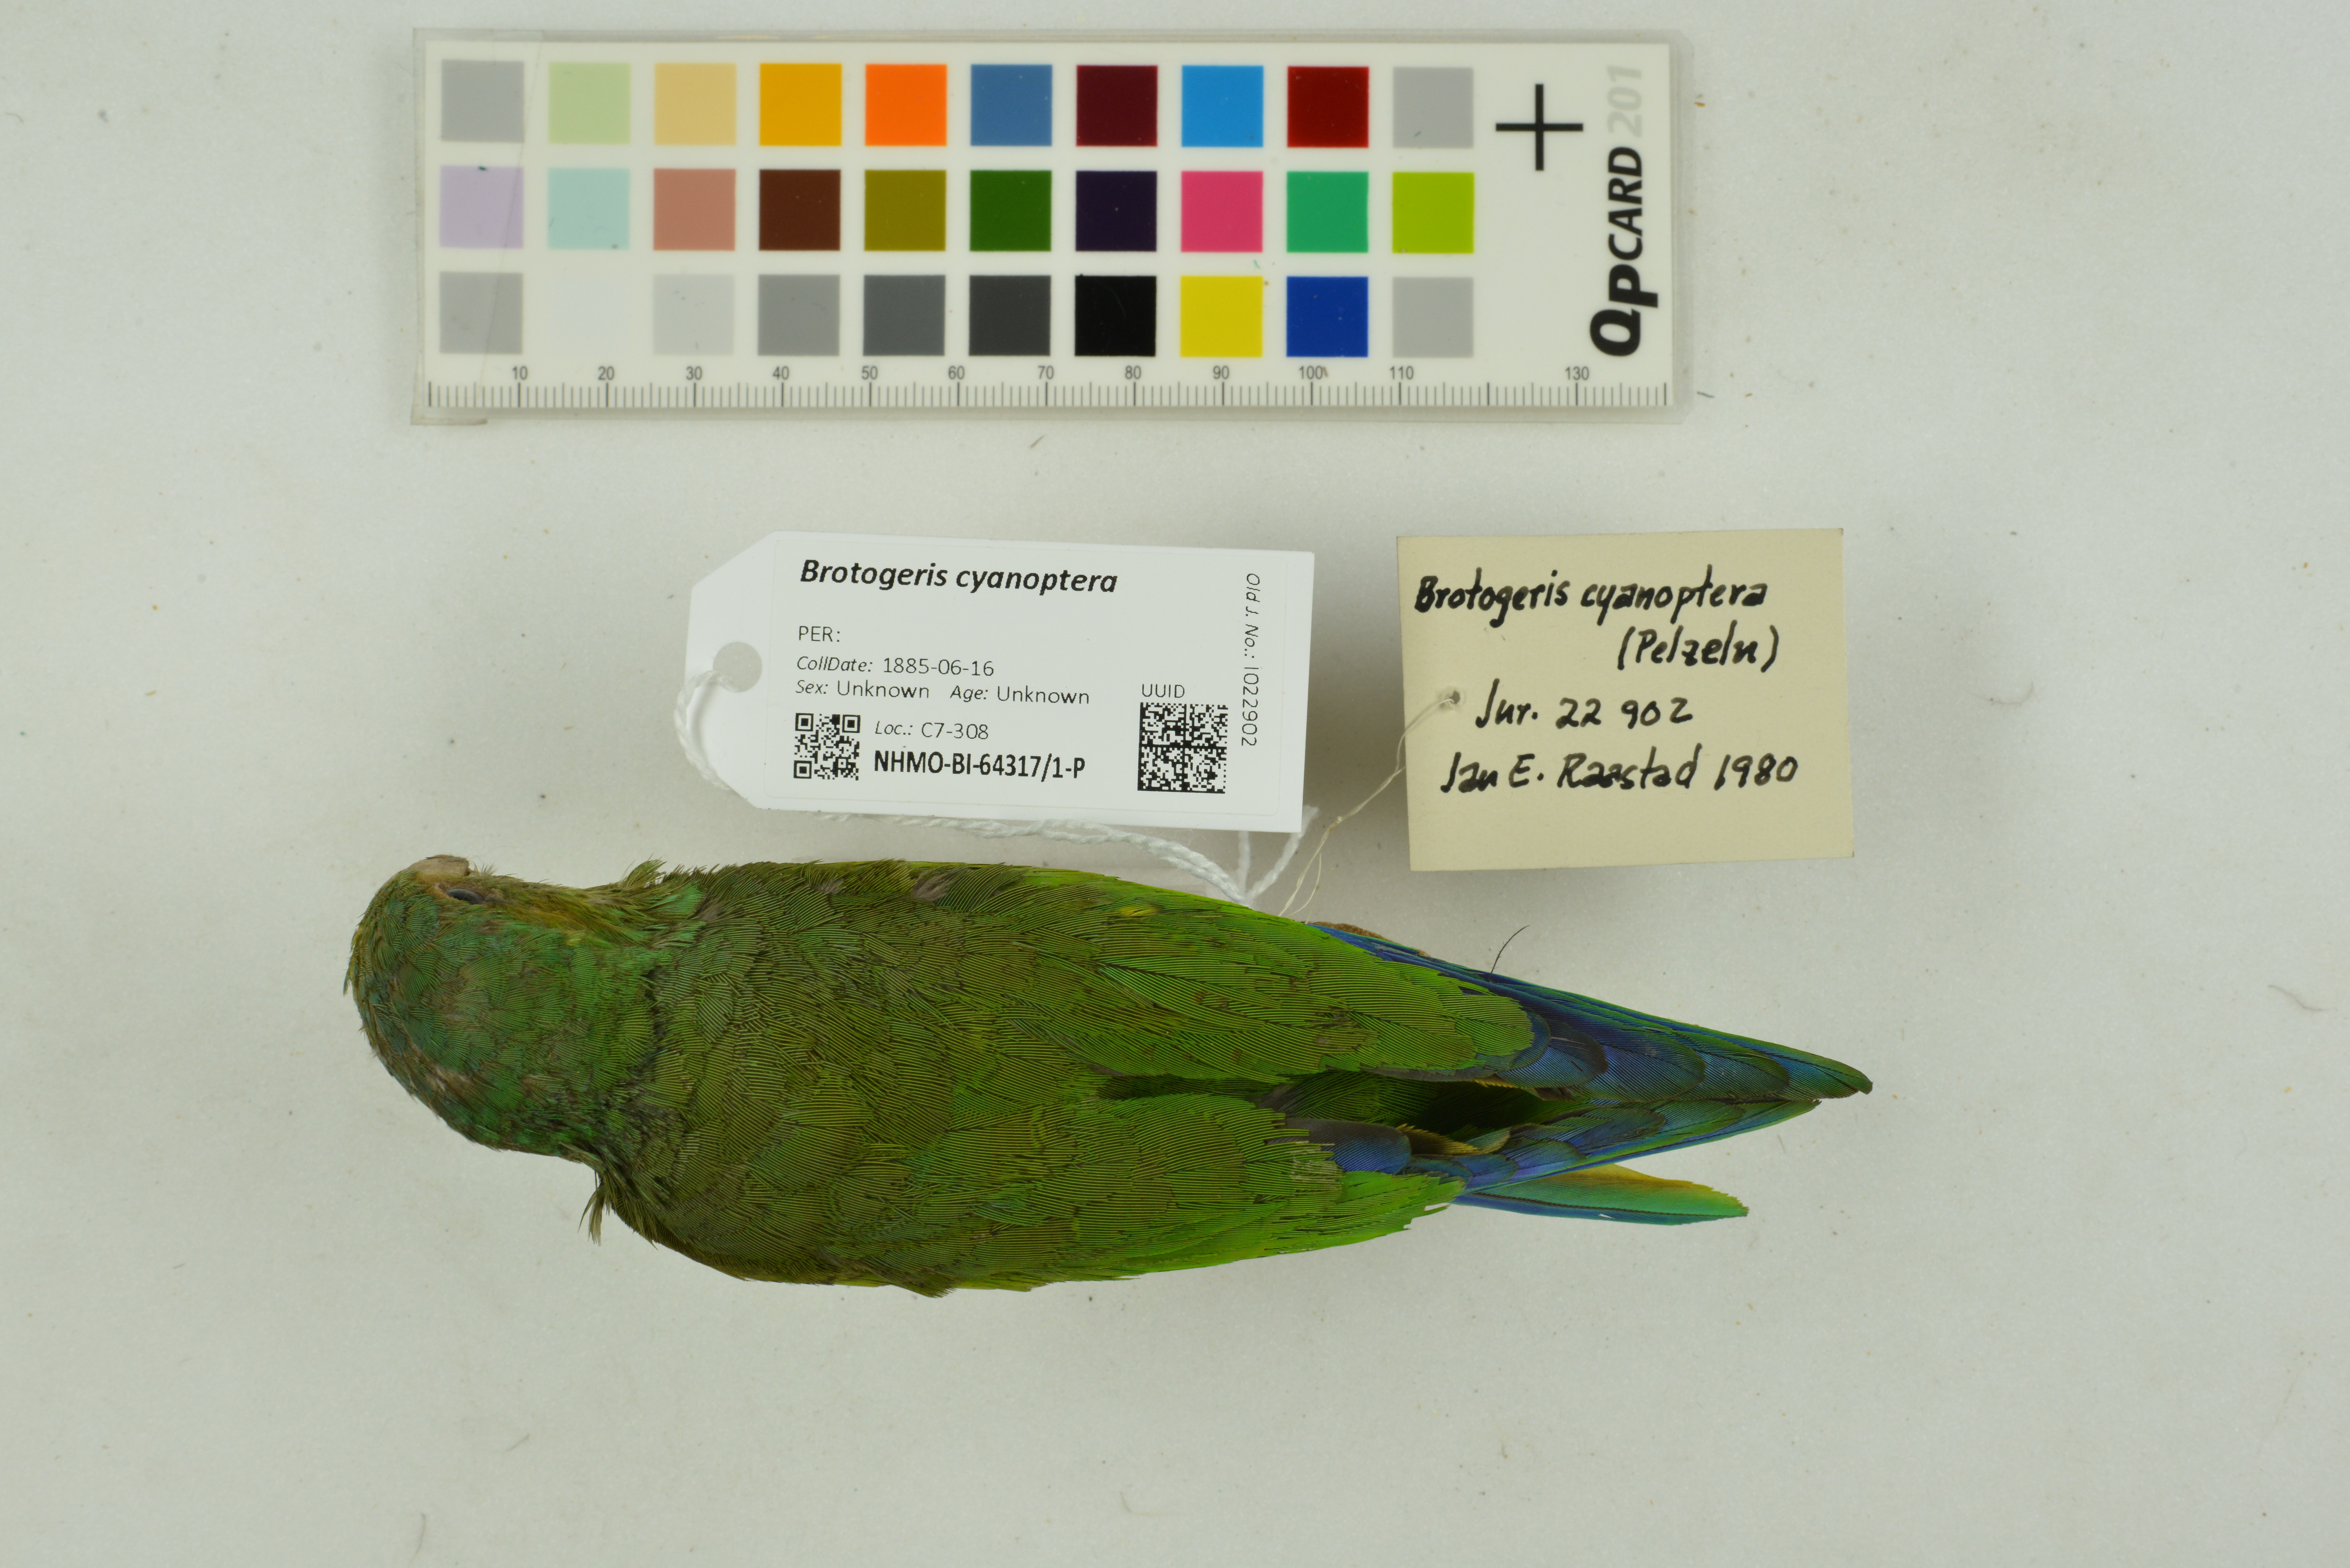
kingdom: Animalia
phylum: Chordata
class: Aves
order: Psittaciformes
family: Psittacidae
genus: Brotogeris
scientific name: Brotogeris cyanoptera
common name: Cobalt-winged parakeet
